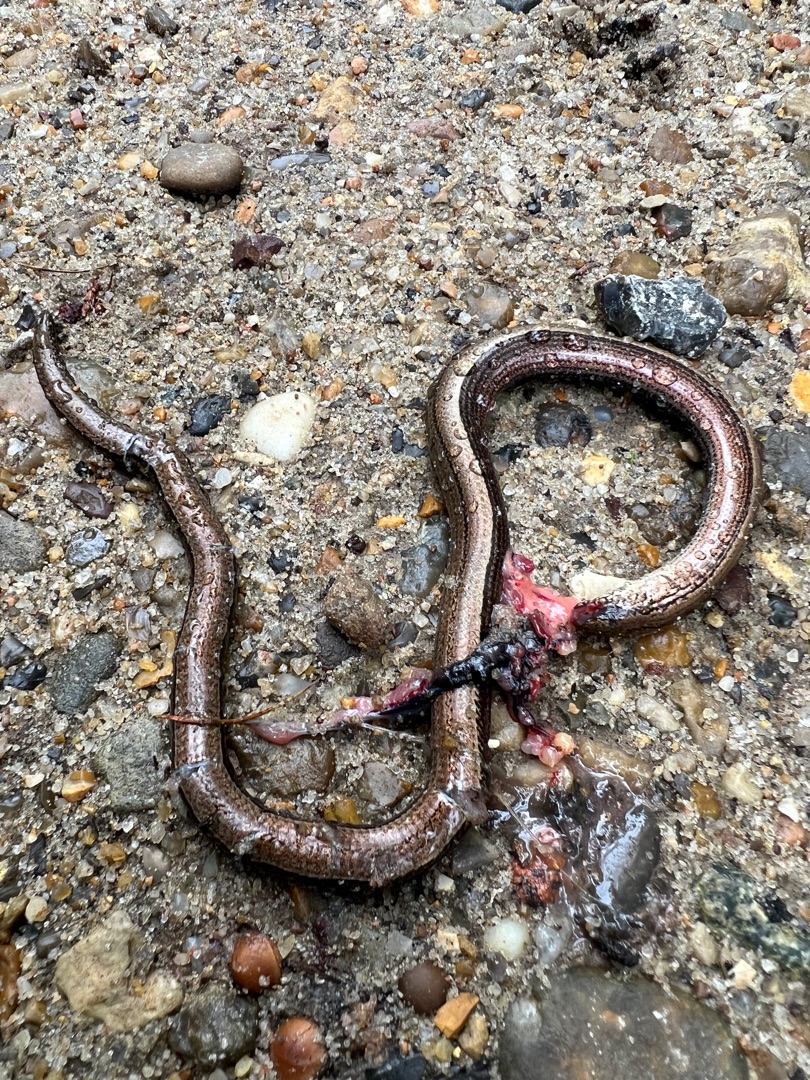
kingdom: Animalia
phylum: Chordata
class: Squamata
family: Anguidae
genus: Anguis
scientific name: Anguis fragilis
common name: Stålorm
